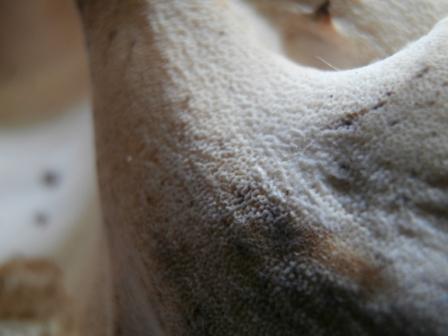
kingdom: Fungi
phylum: Basidiomycota
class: Agaricomycetes
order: Polyporales
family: Polyporaceae
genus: Cerioporus
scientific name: Cerioporus varius
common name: foranderlig stilkporesvamp
